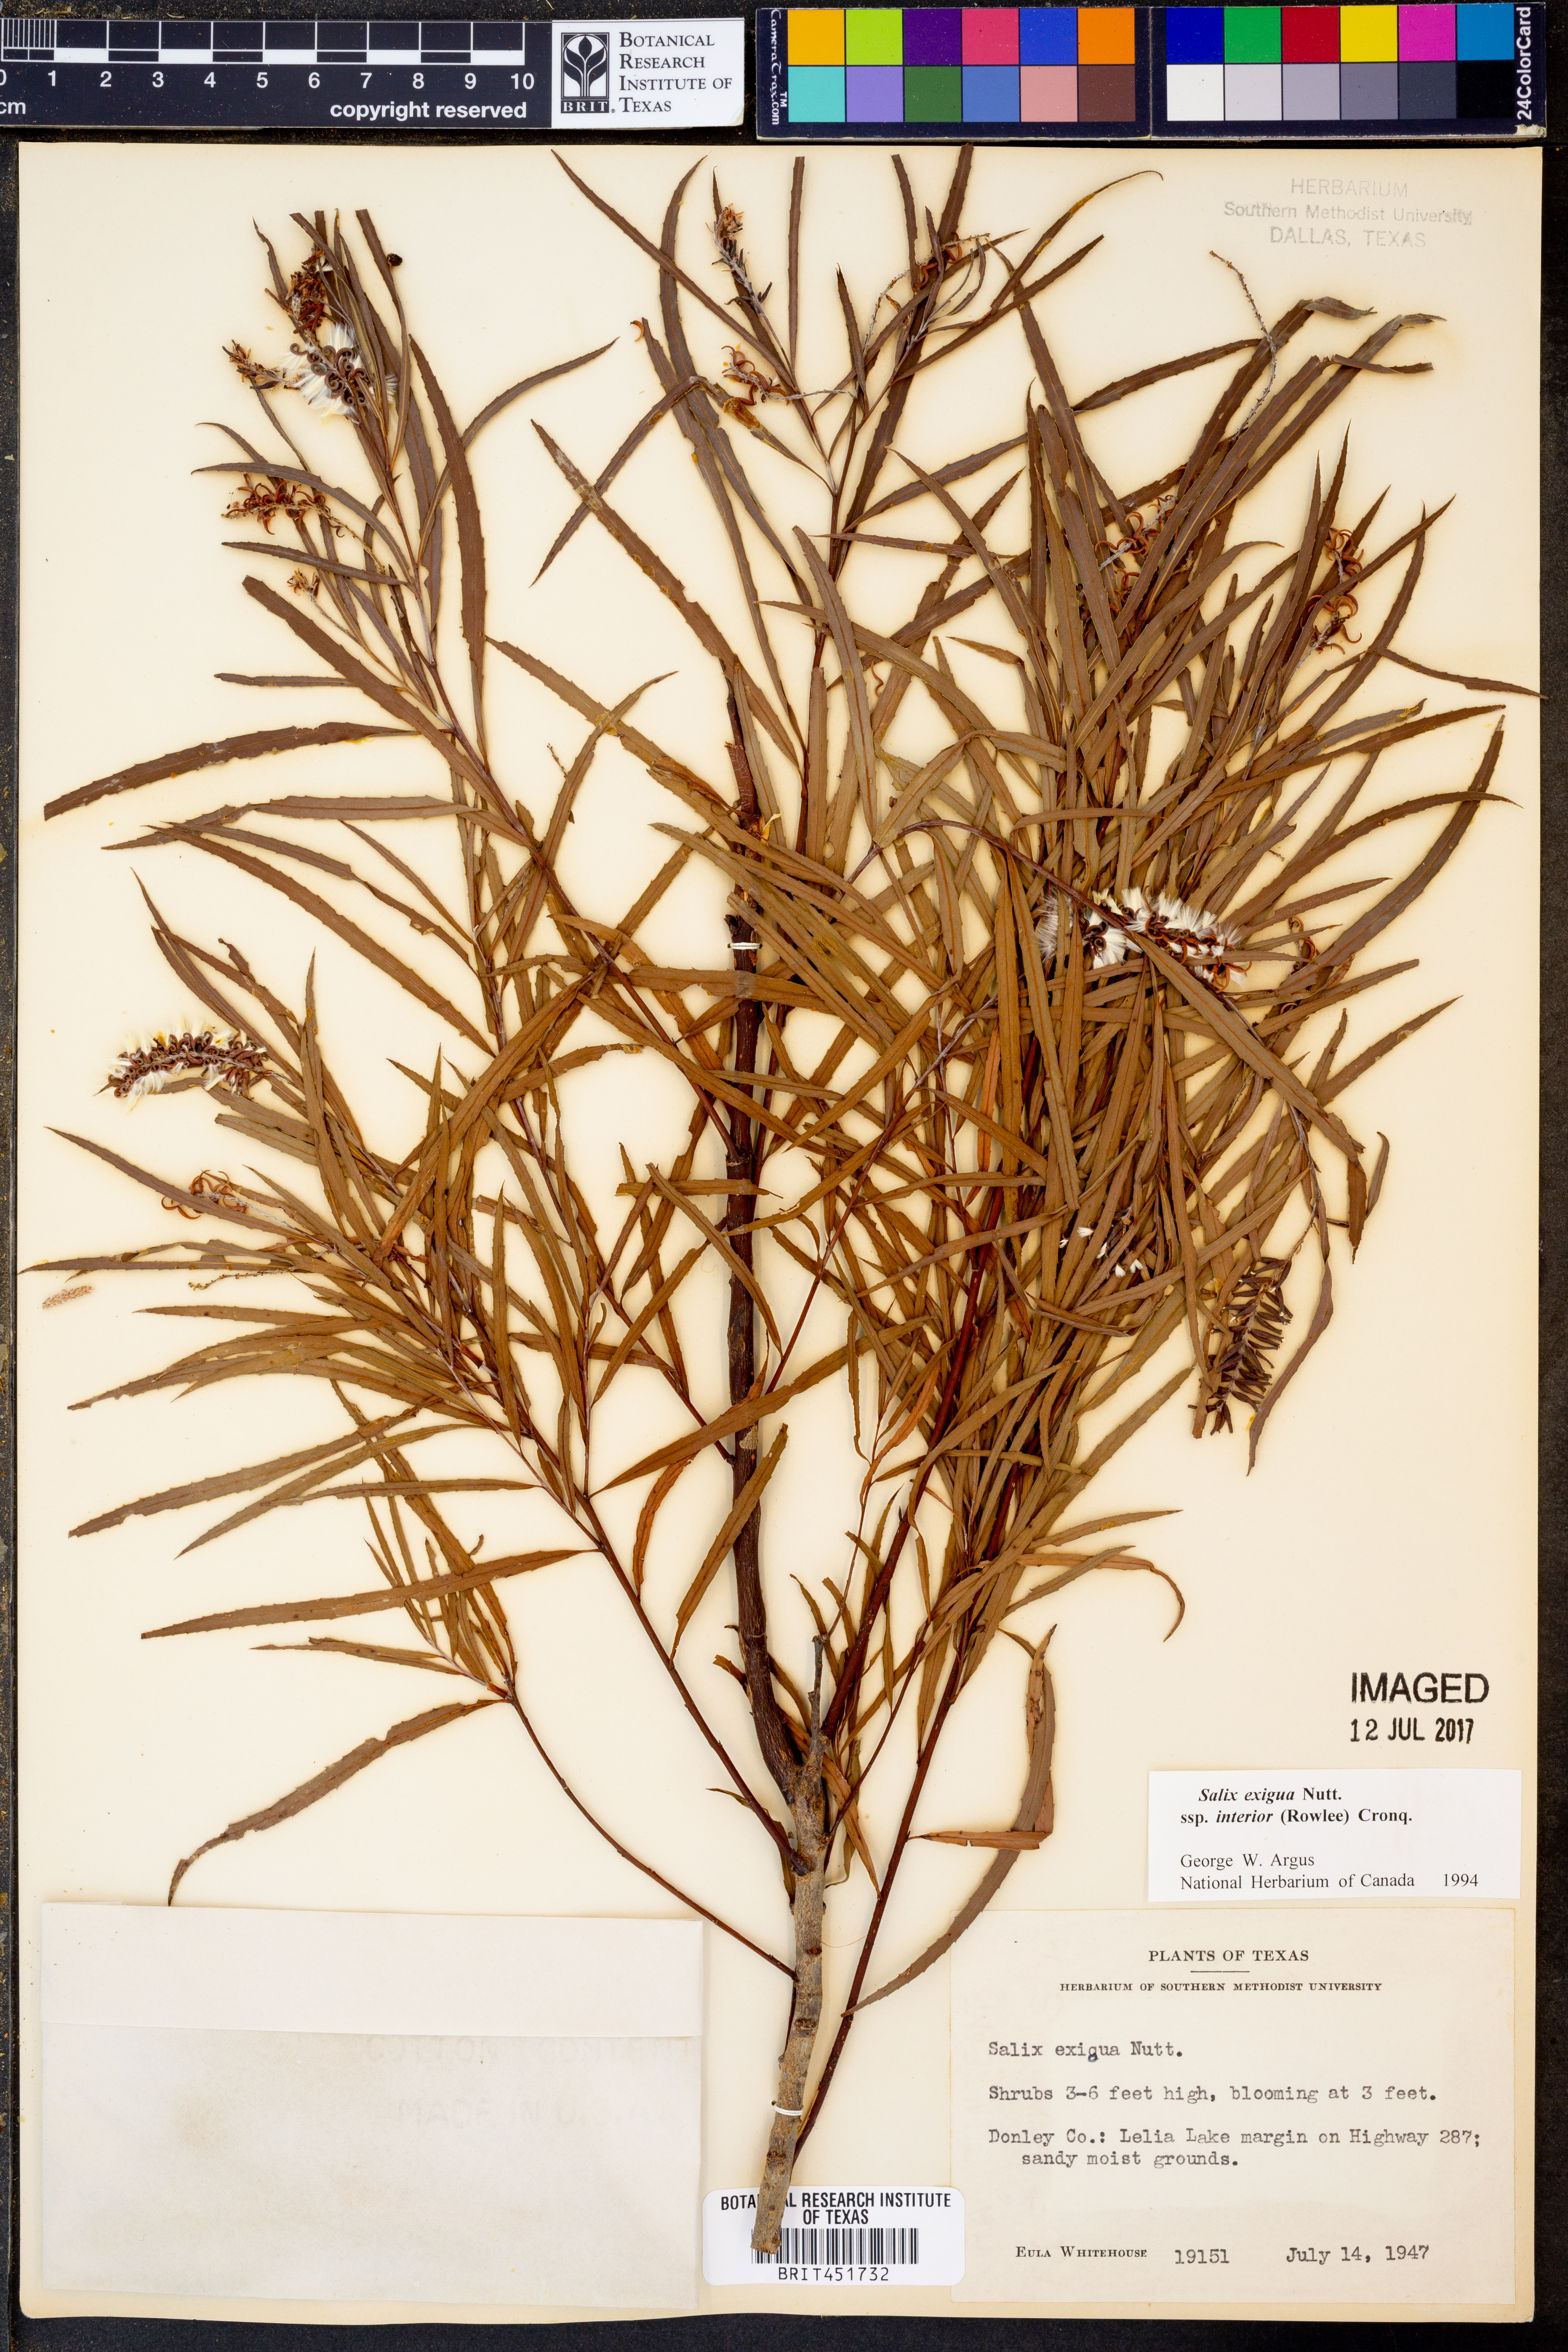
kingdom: Plantae
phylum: Tracheophyta
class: Magnoliopsida
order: Malpighiales
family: Salicaceae
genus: Salix
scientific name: Salix interior
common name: Sandbar willow
